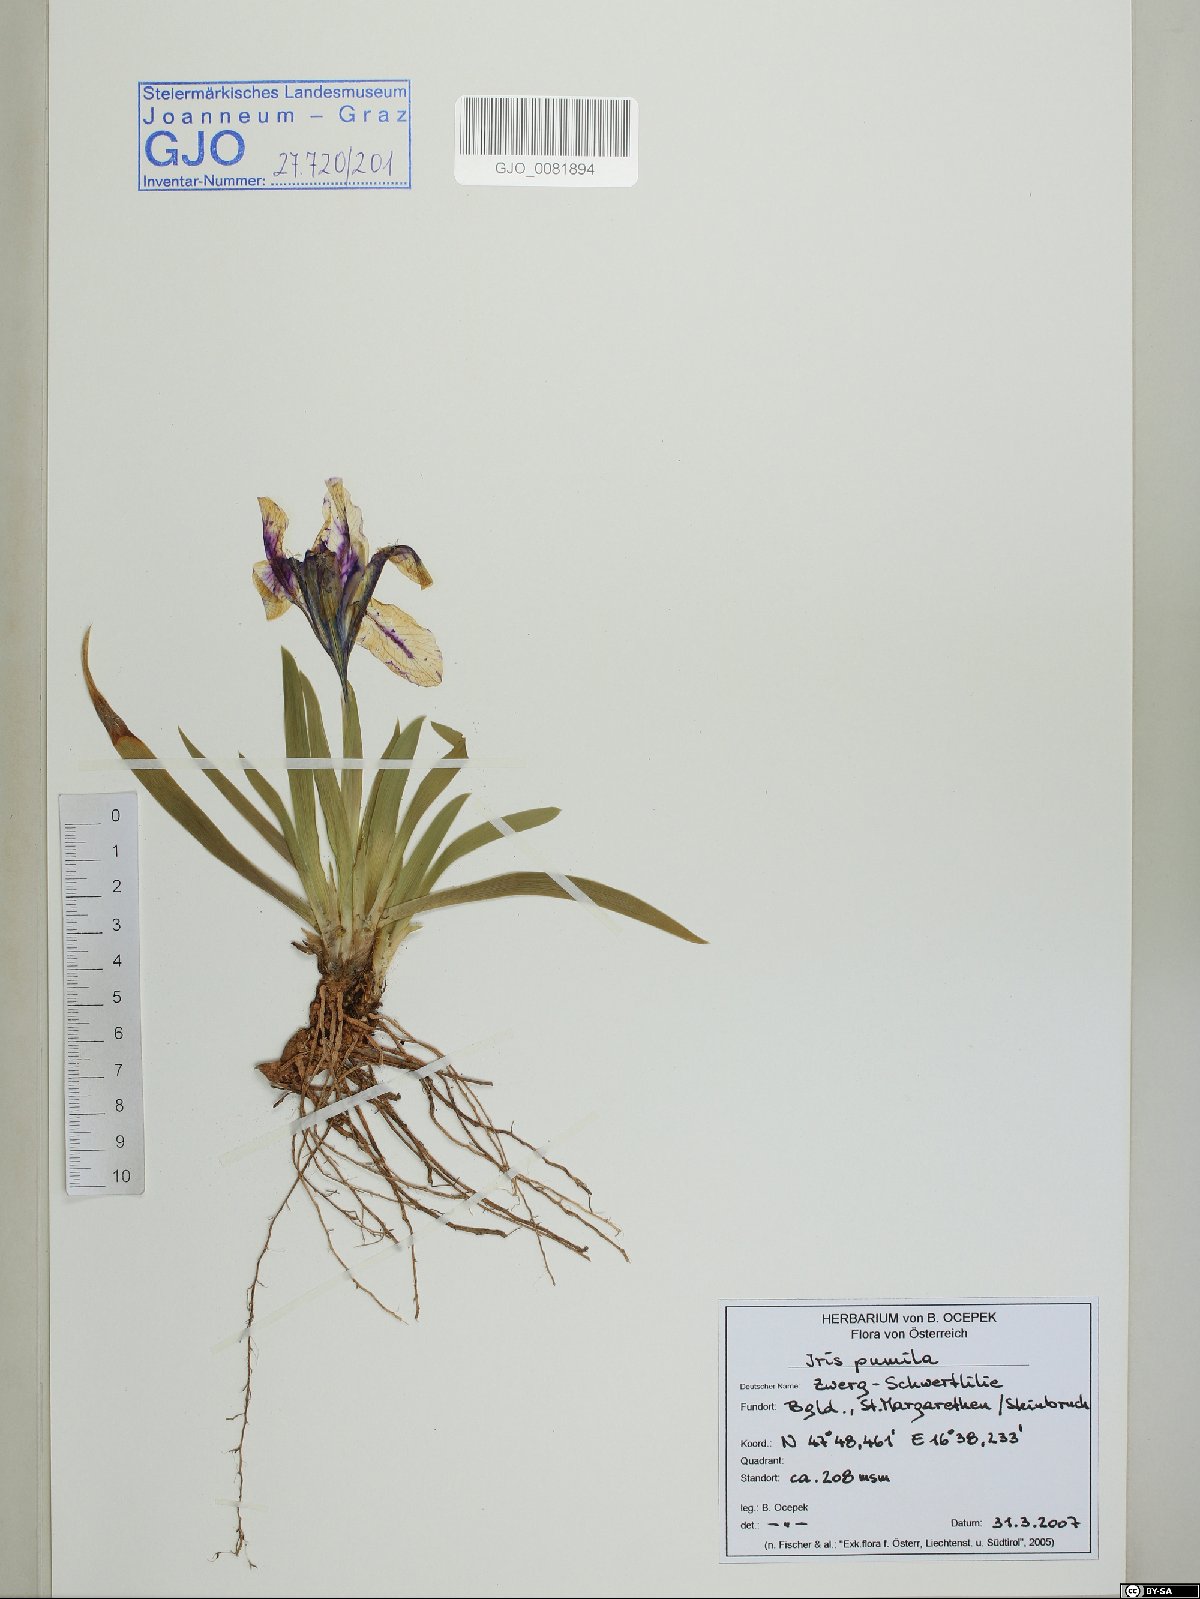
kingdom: Plantae
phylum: Tracheophyta
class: Liliopsida
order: Asparagales
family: Iridaceae
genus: Iris
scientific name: Iris pumila
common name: Dwarf iris
